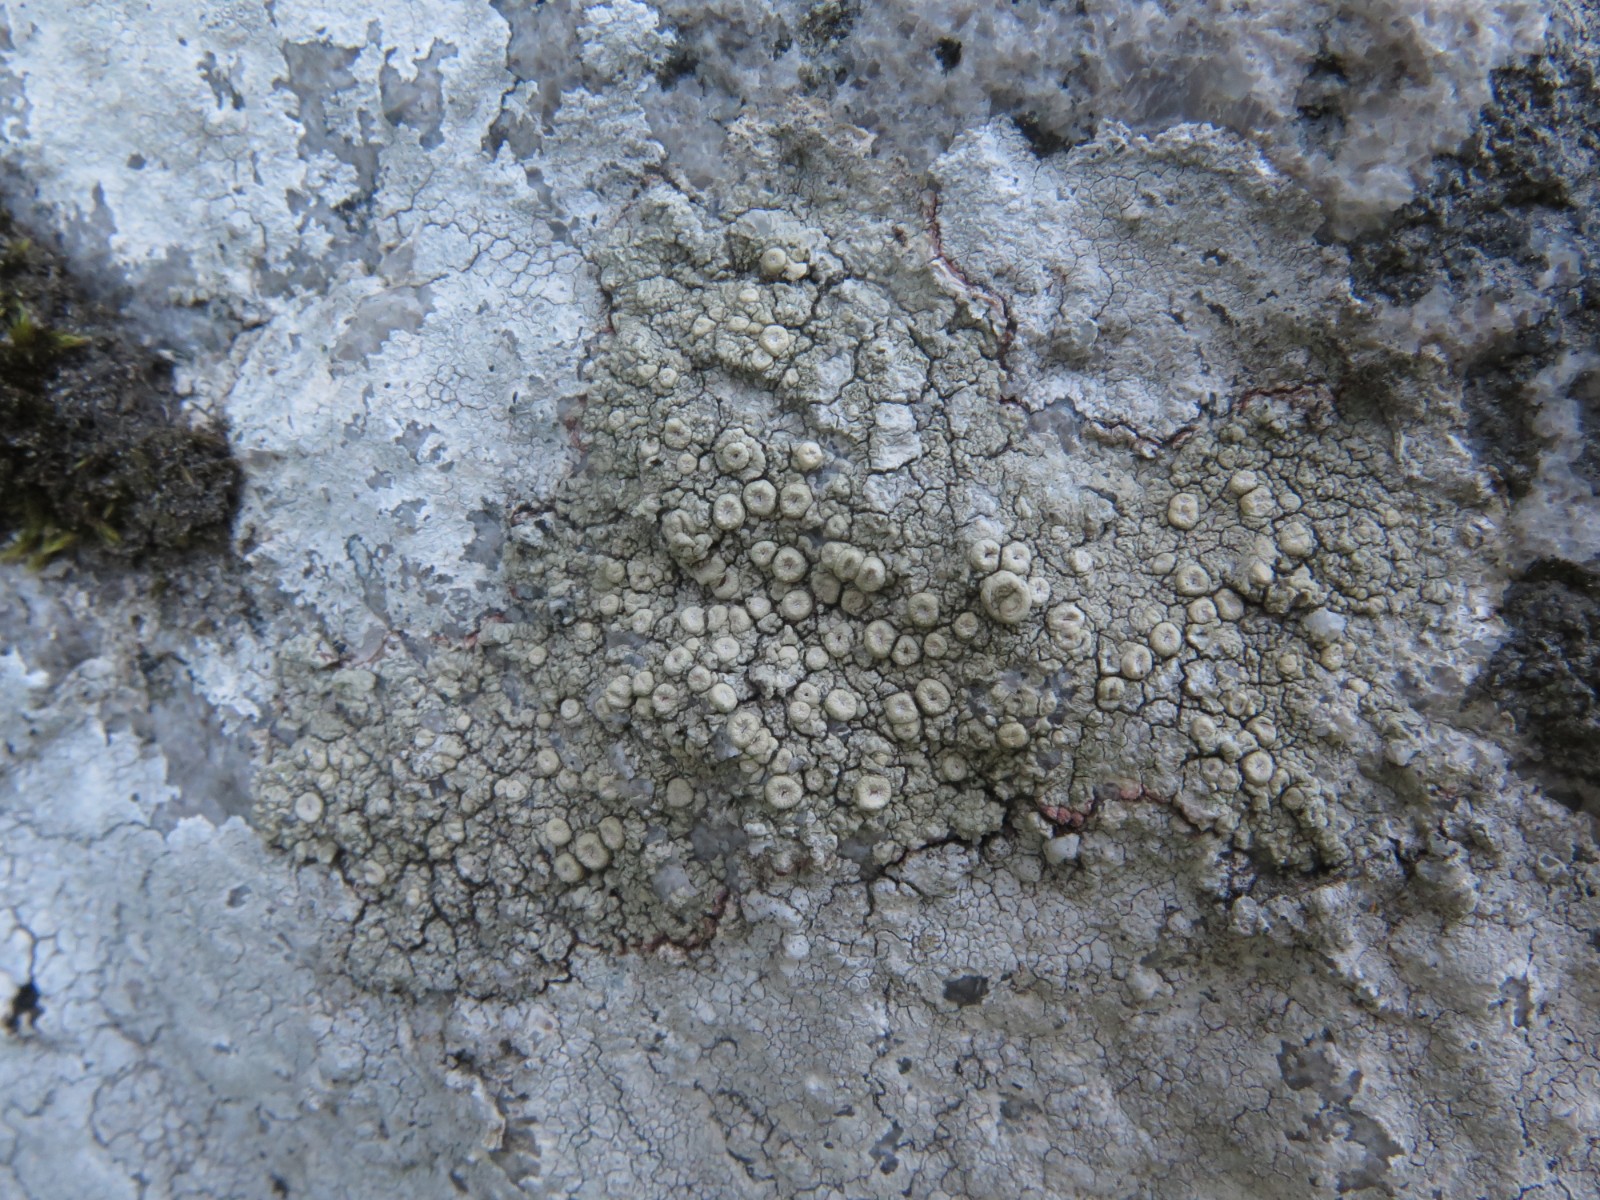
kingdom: Fungi
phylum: Ascomycota
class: Lecanoromycetes
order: Pertusariales
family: Ochrolechiaceae
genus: Ochrolechia
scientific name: Ochrolechia parella
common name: almindelig blegskivelav
